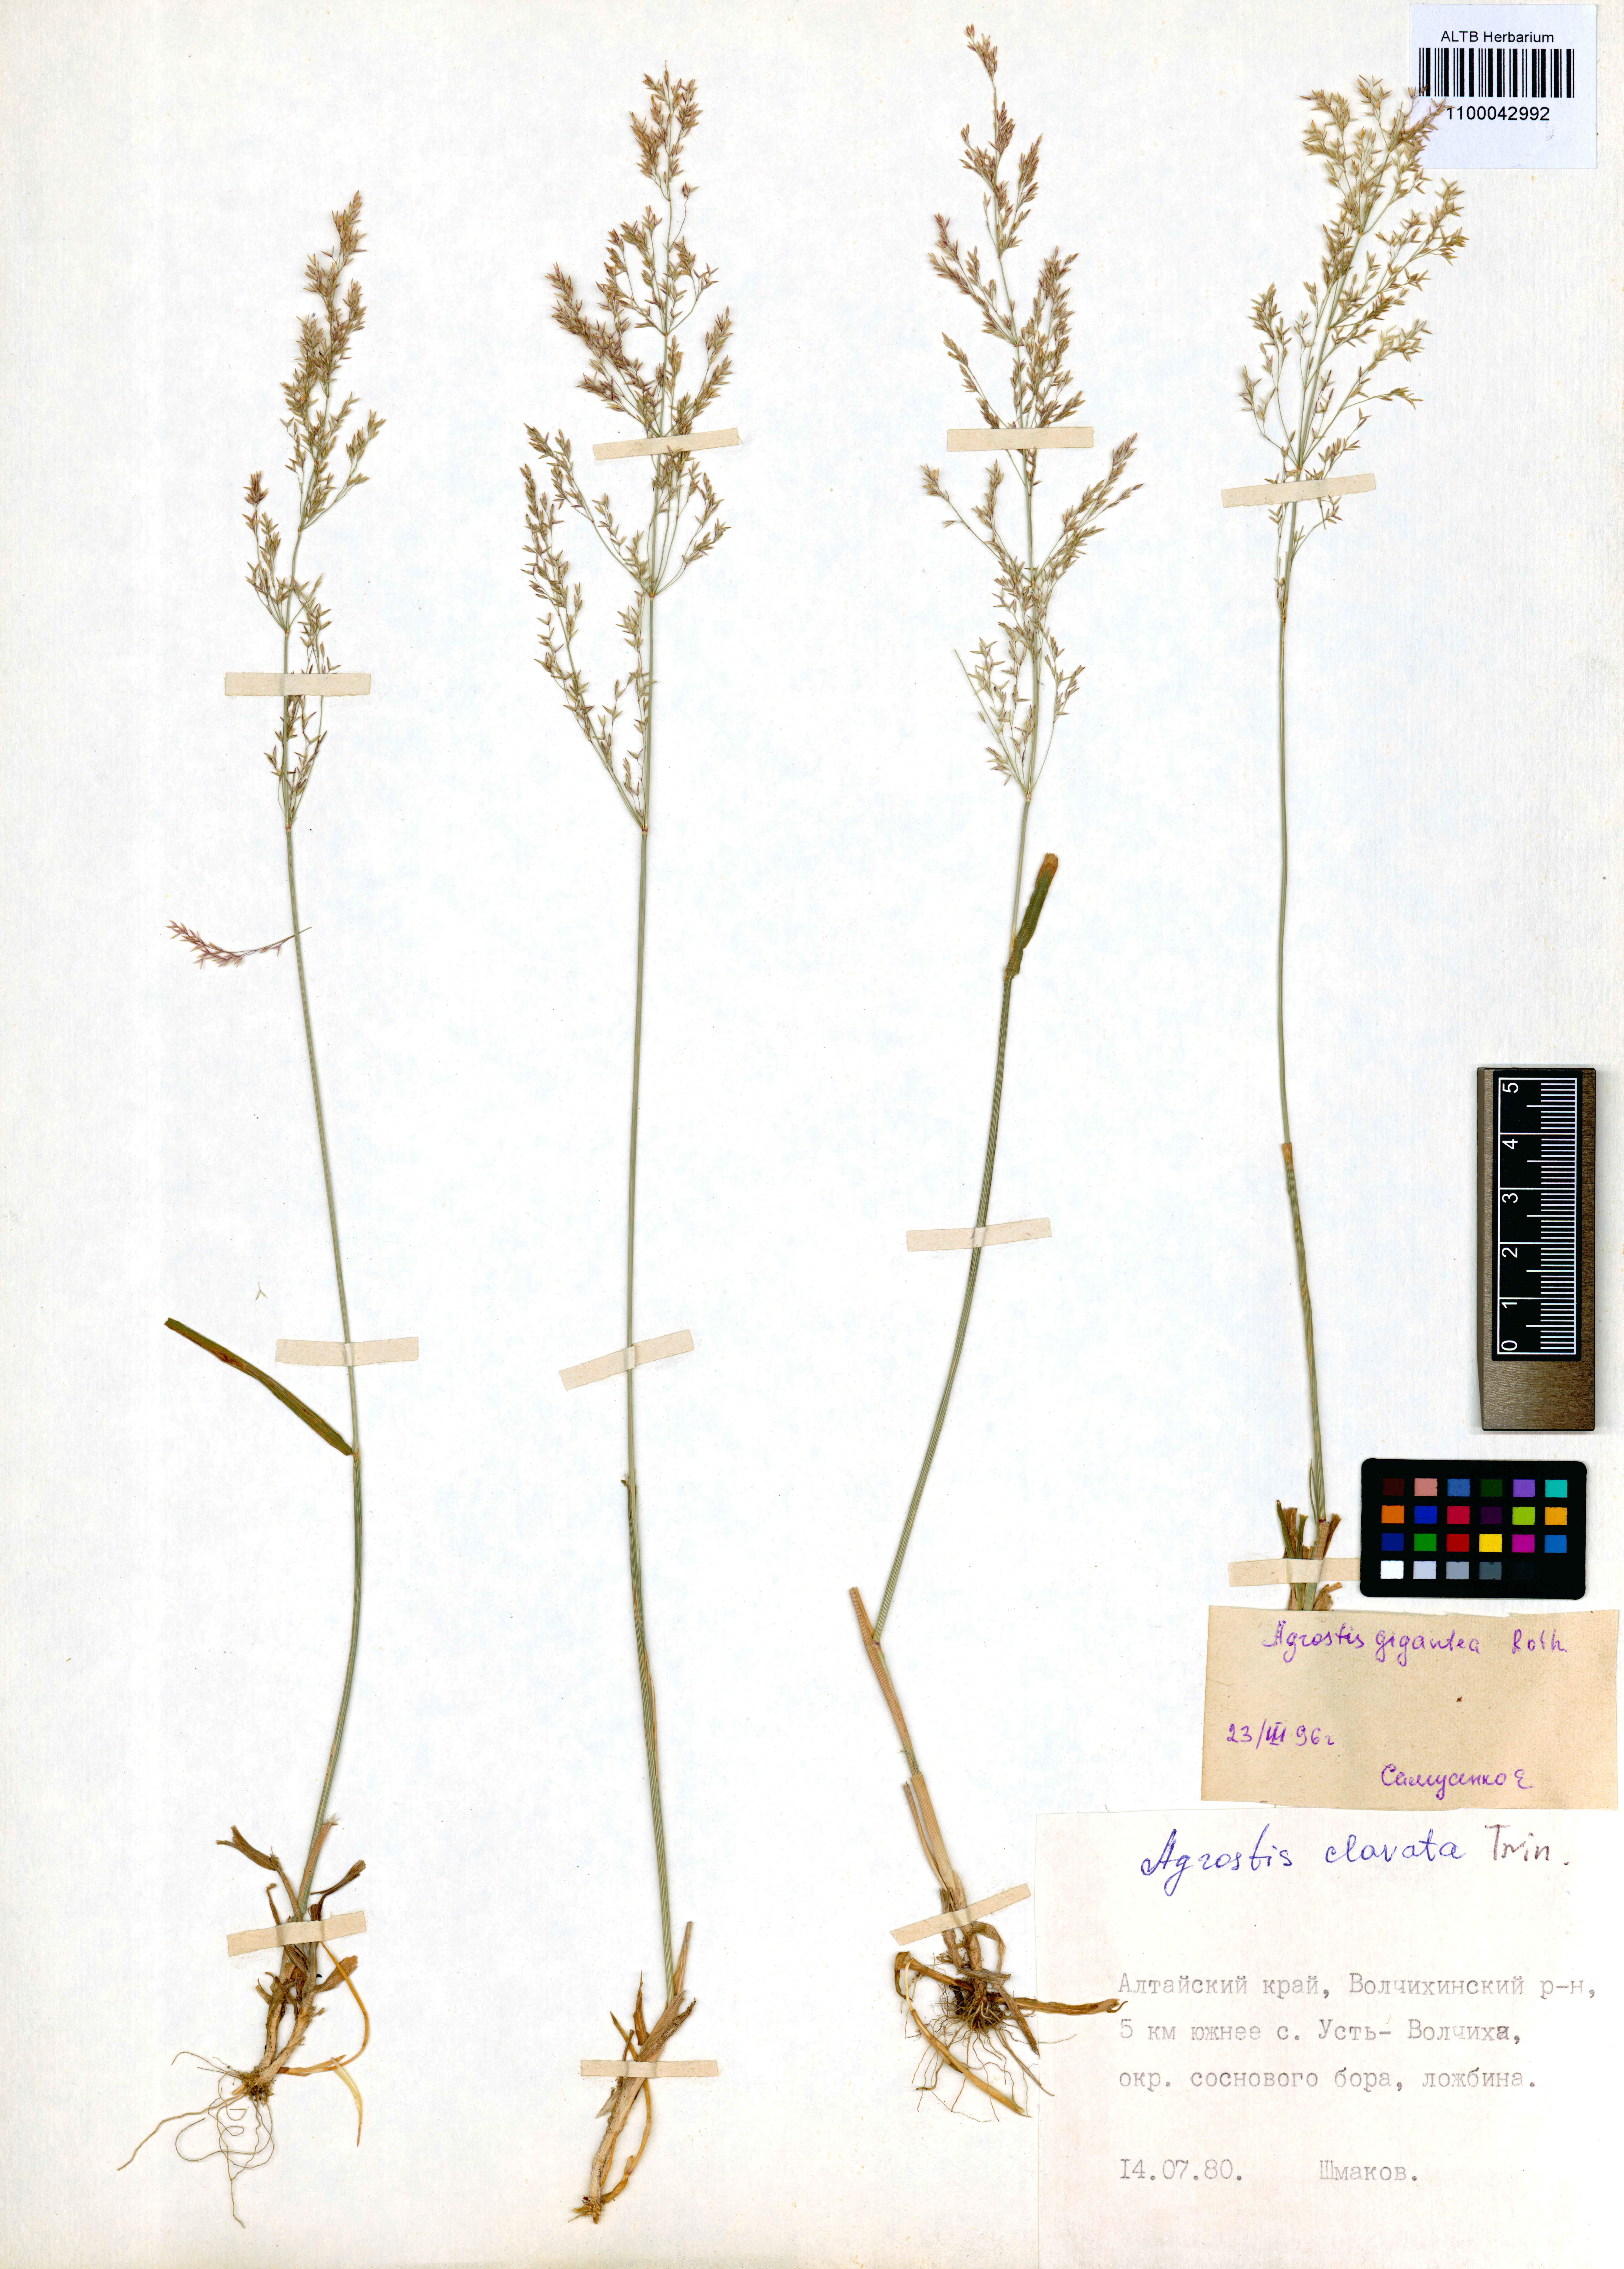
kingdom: Plantae
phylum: Tracheophyta
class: Liliopsida
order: Poales
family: Poaceae
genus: Agrostis
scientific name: Agrostis gigantea
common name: Black bent
